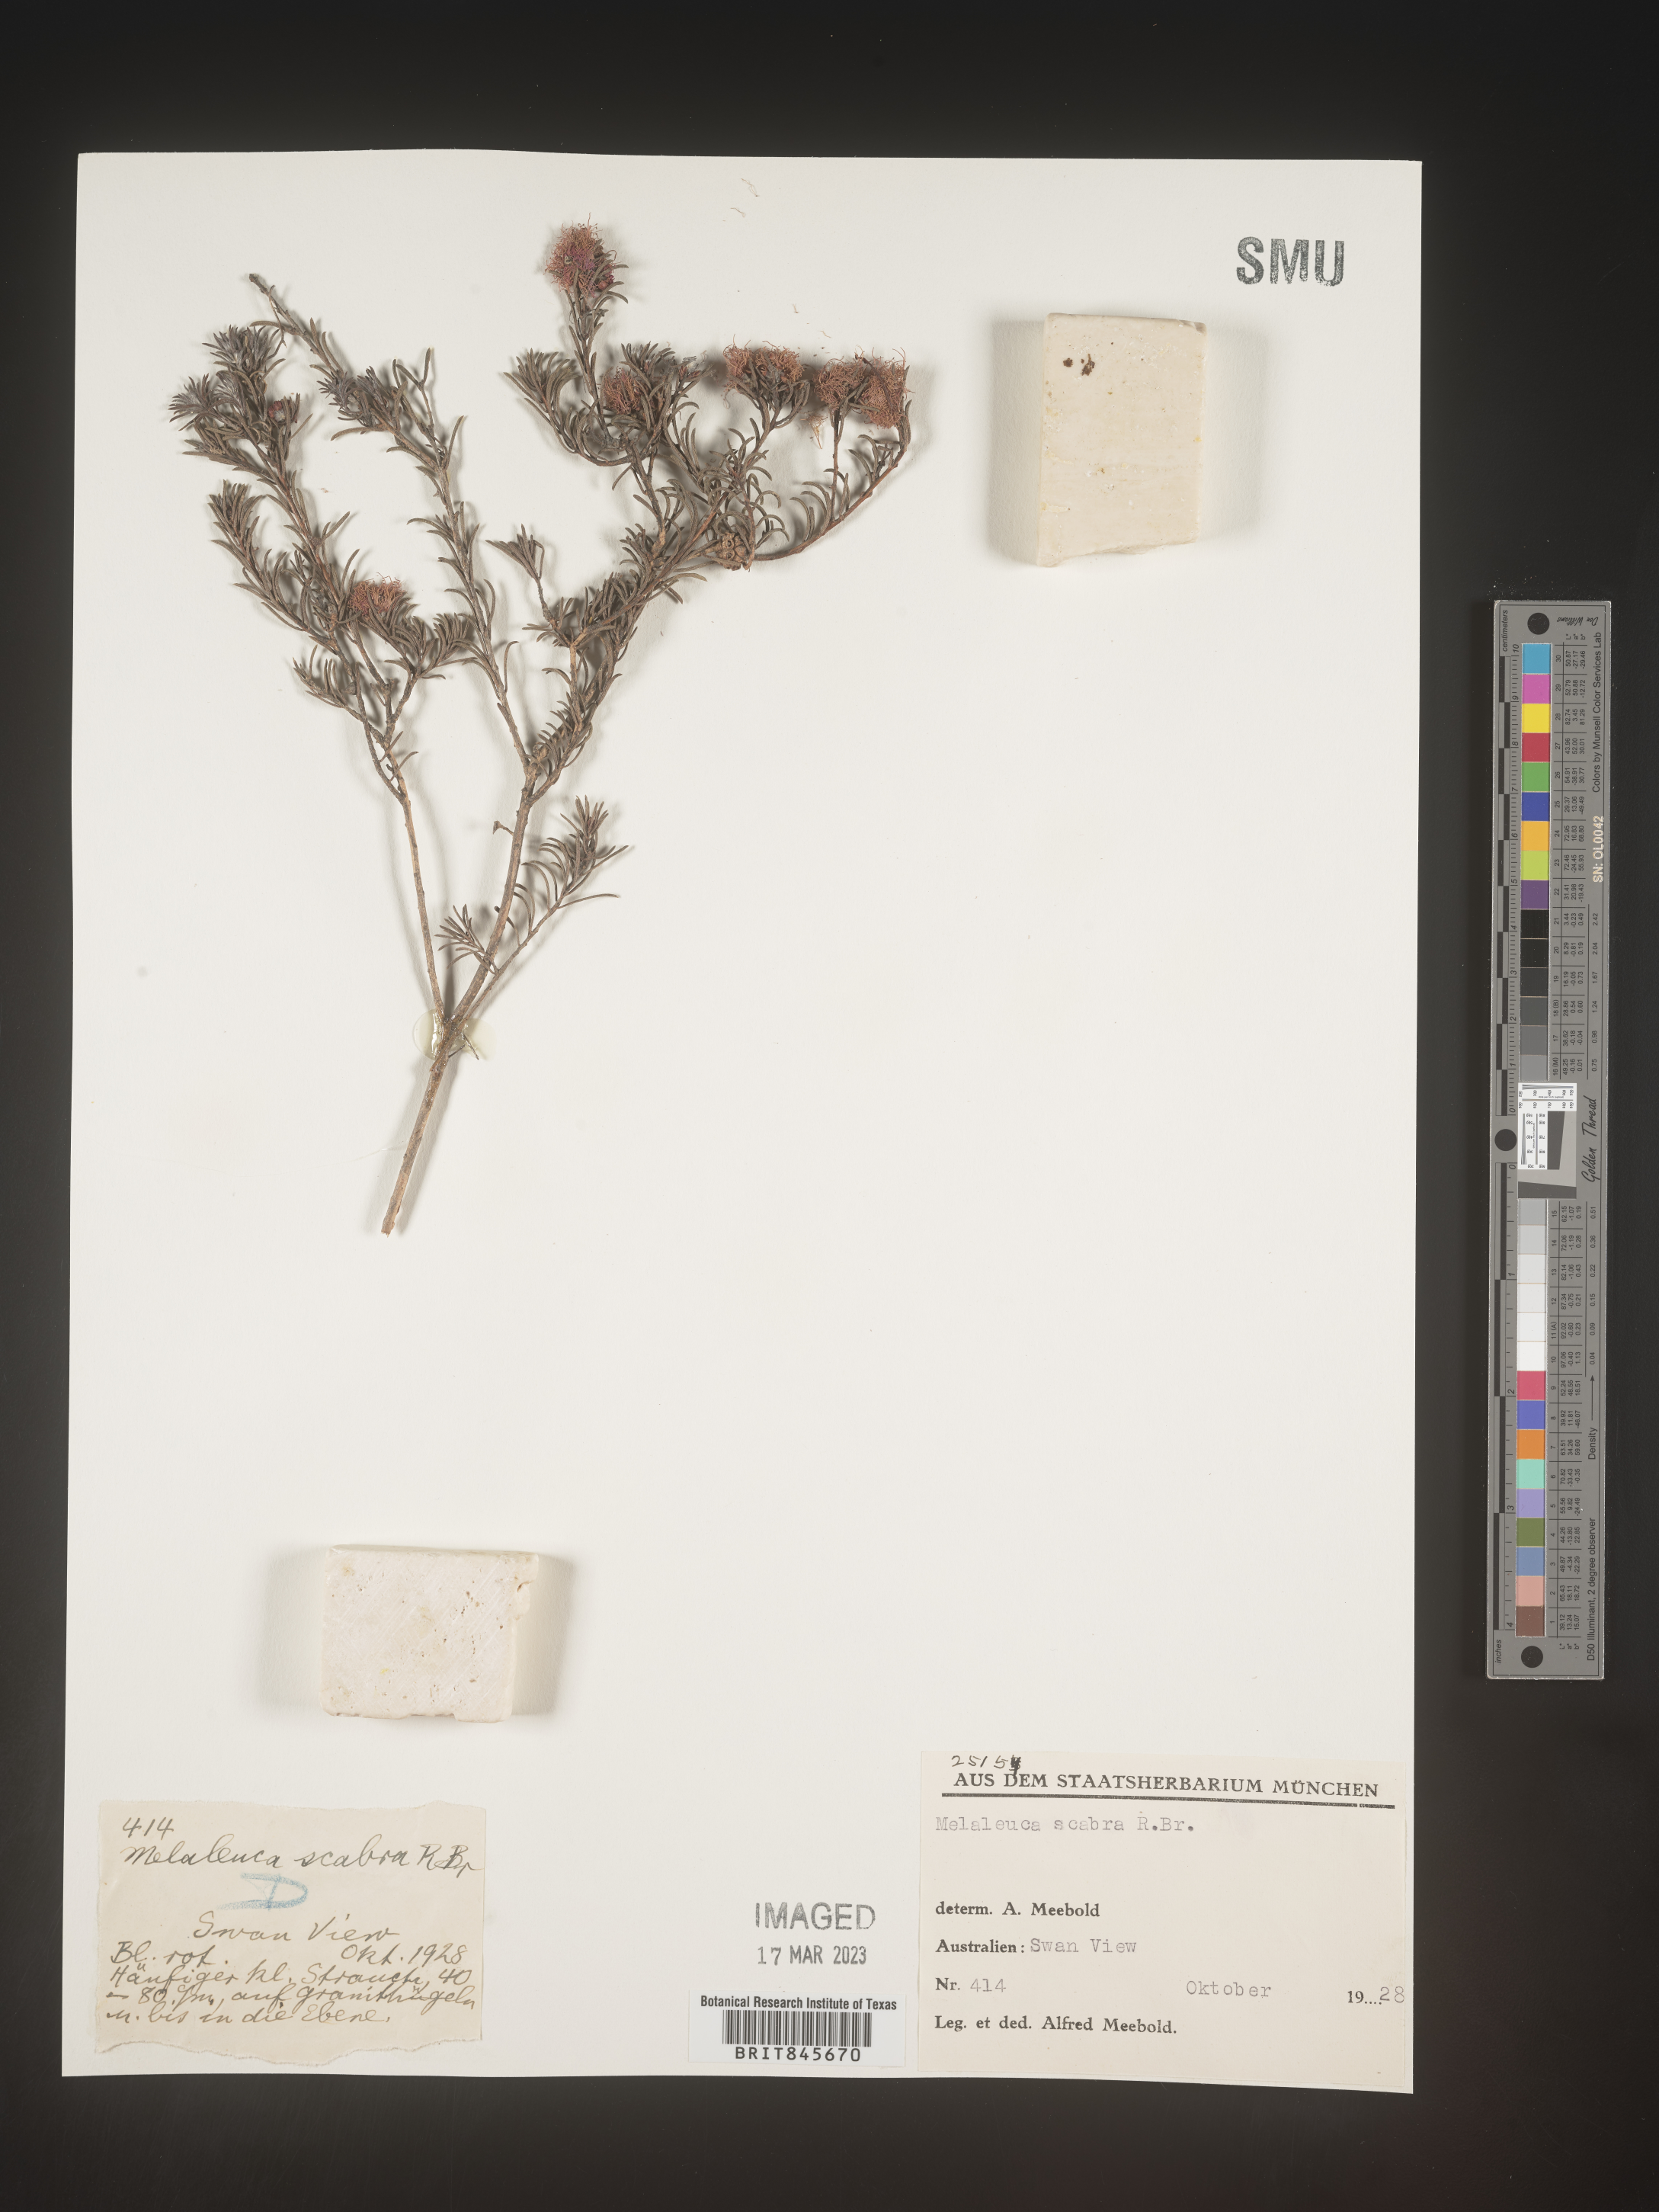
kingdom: Plantae
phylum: Tracheophyta
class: Magnoliopsida
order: Myrtales
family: Myrtaceae
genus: Melaleuca
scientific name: Melaleuca
